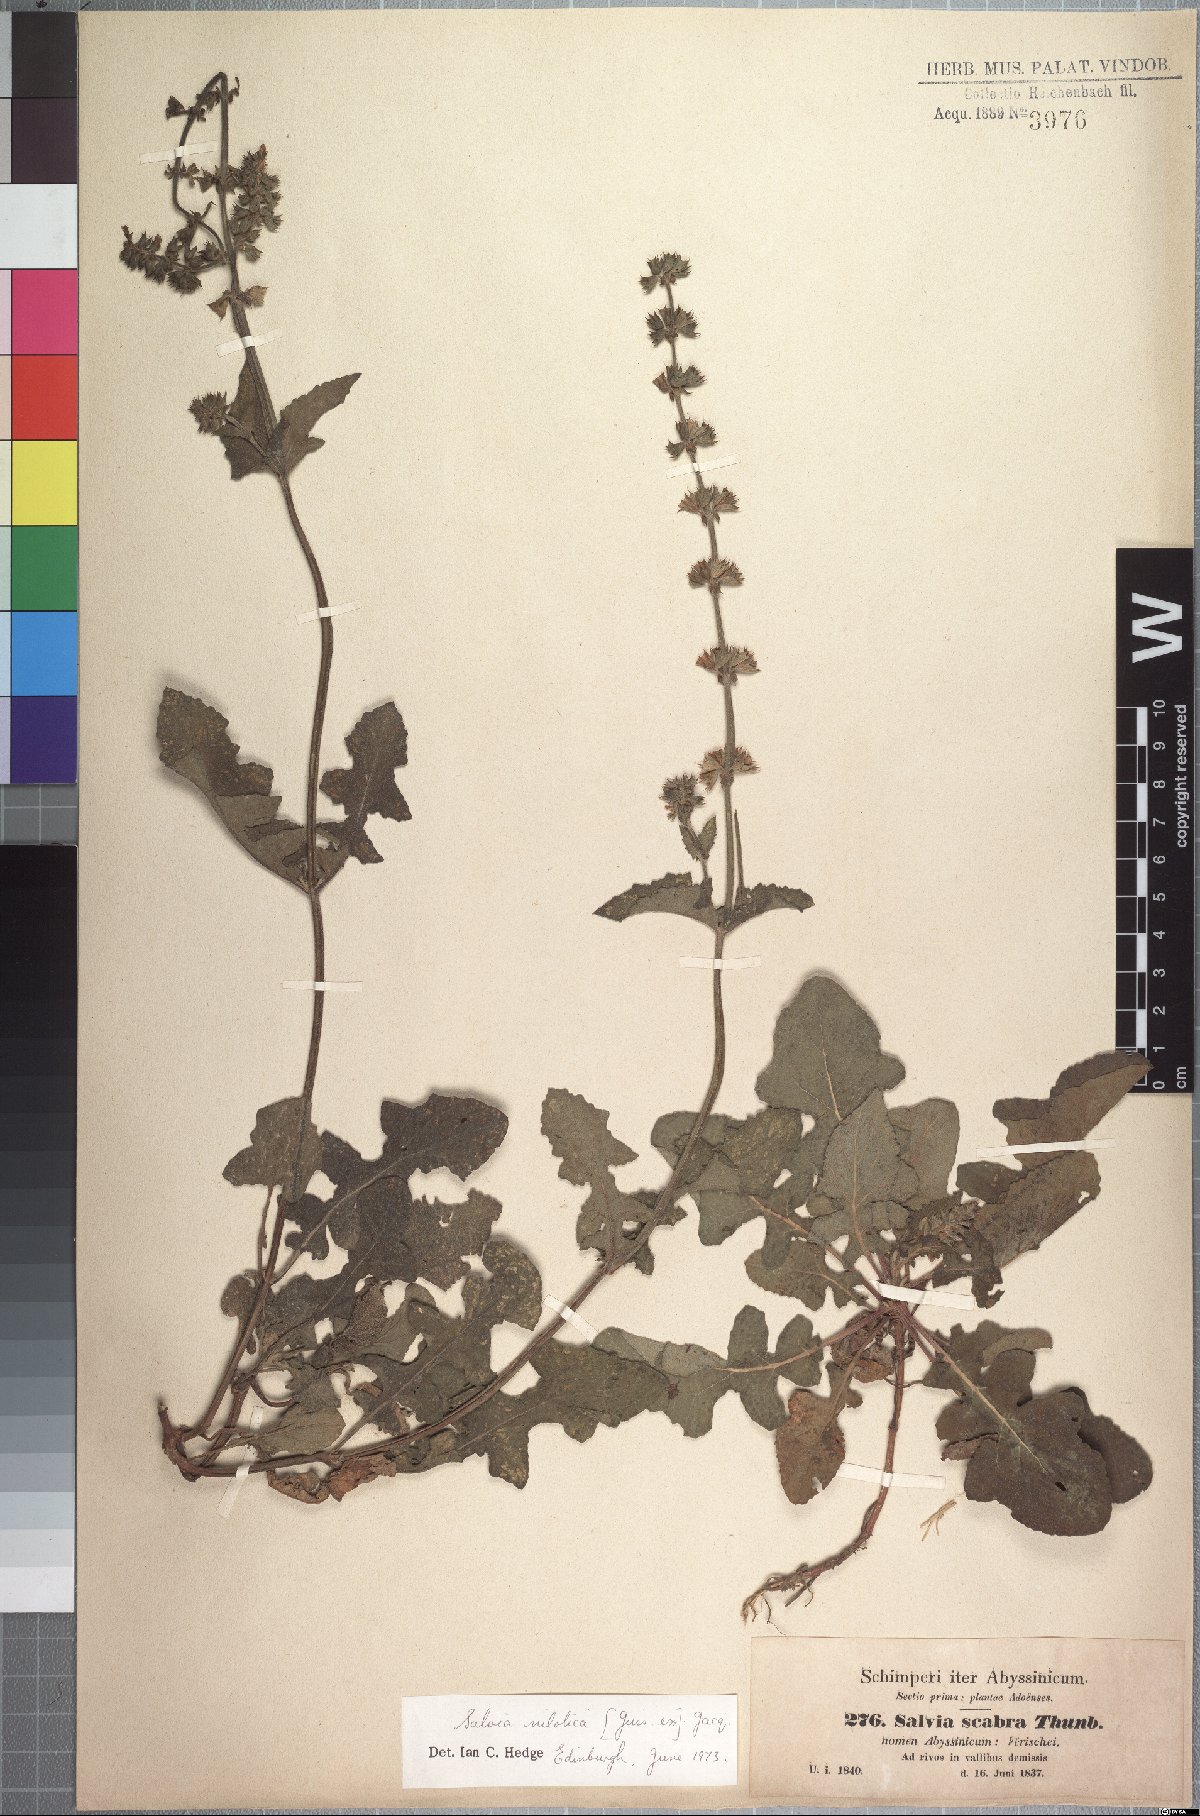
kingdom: Plantae
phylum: Tracheophyta
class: Magnoliopsida
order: Lamiales
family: Lamiaceae
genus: Salvia
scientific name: Salvia nilotica
